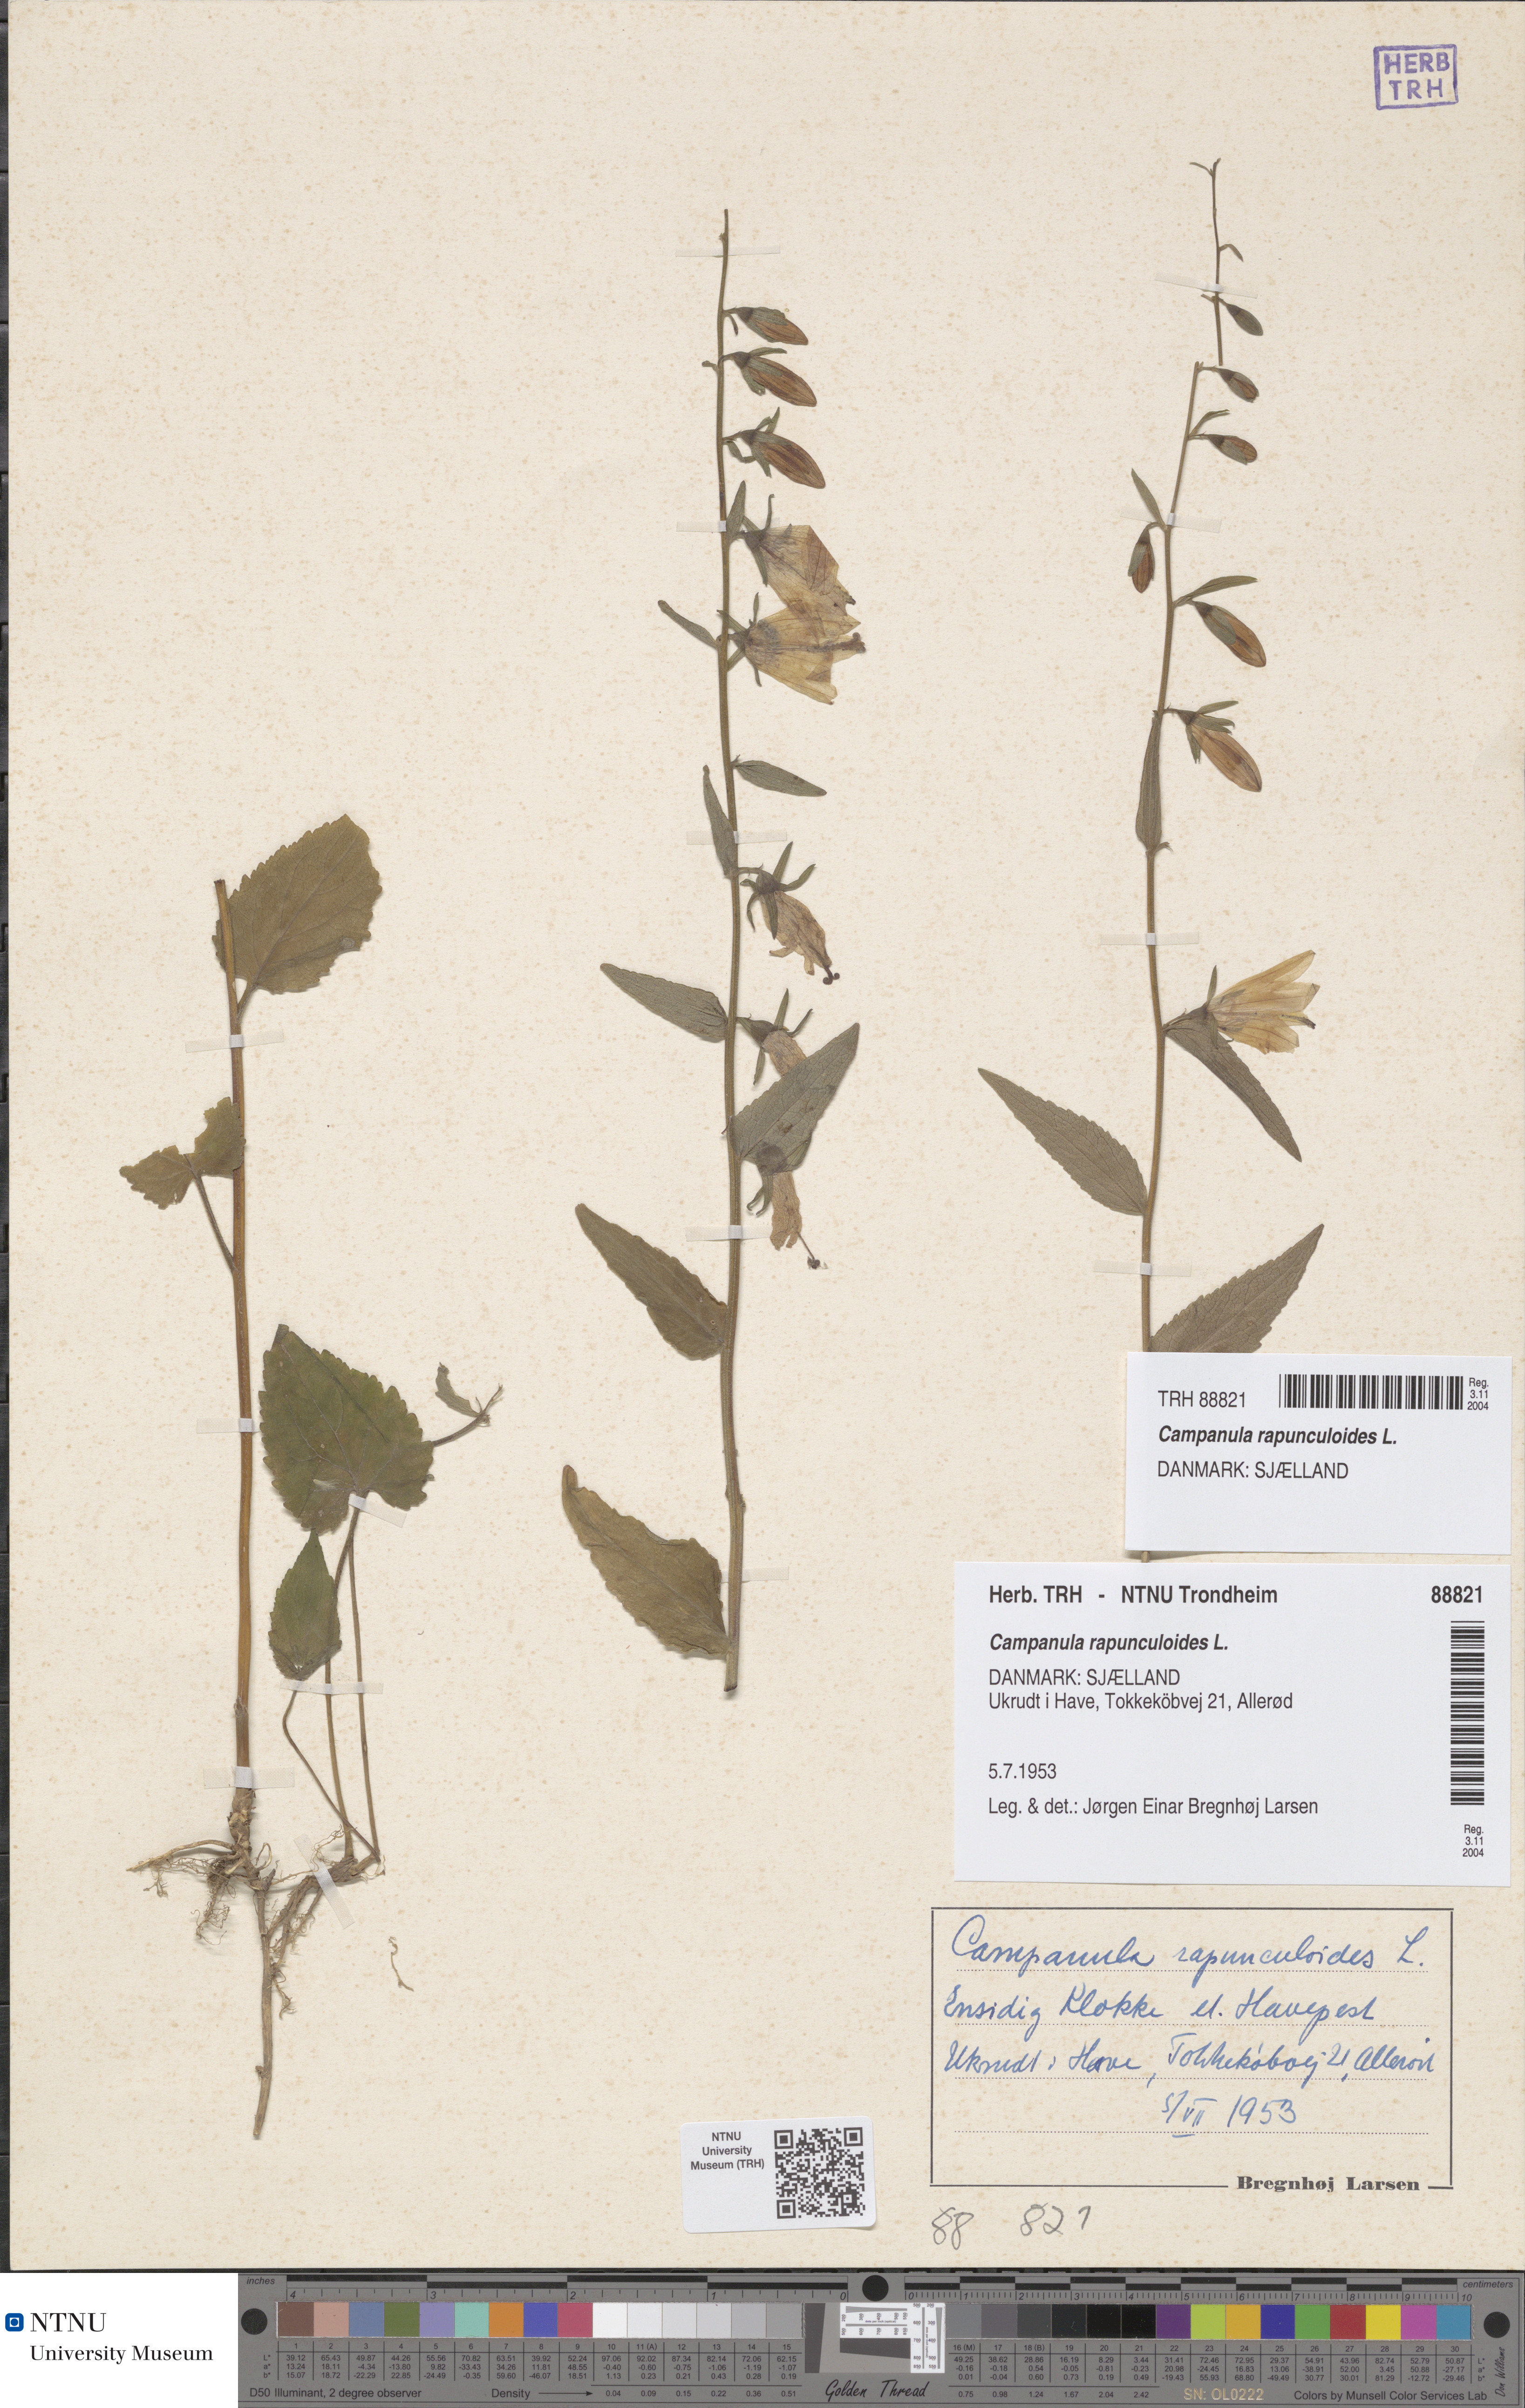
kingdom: Plantae
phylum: Tracheophyta
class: Magnoliopsida
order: Asterales
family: Campanulaceae
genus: Campanula
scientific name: Campanula rapunculoides
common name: Creeping bellflower
